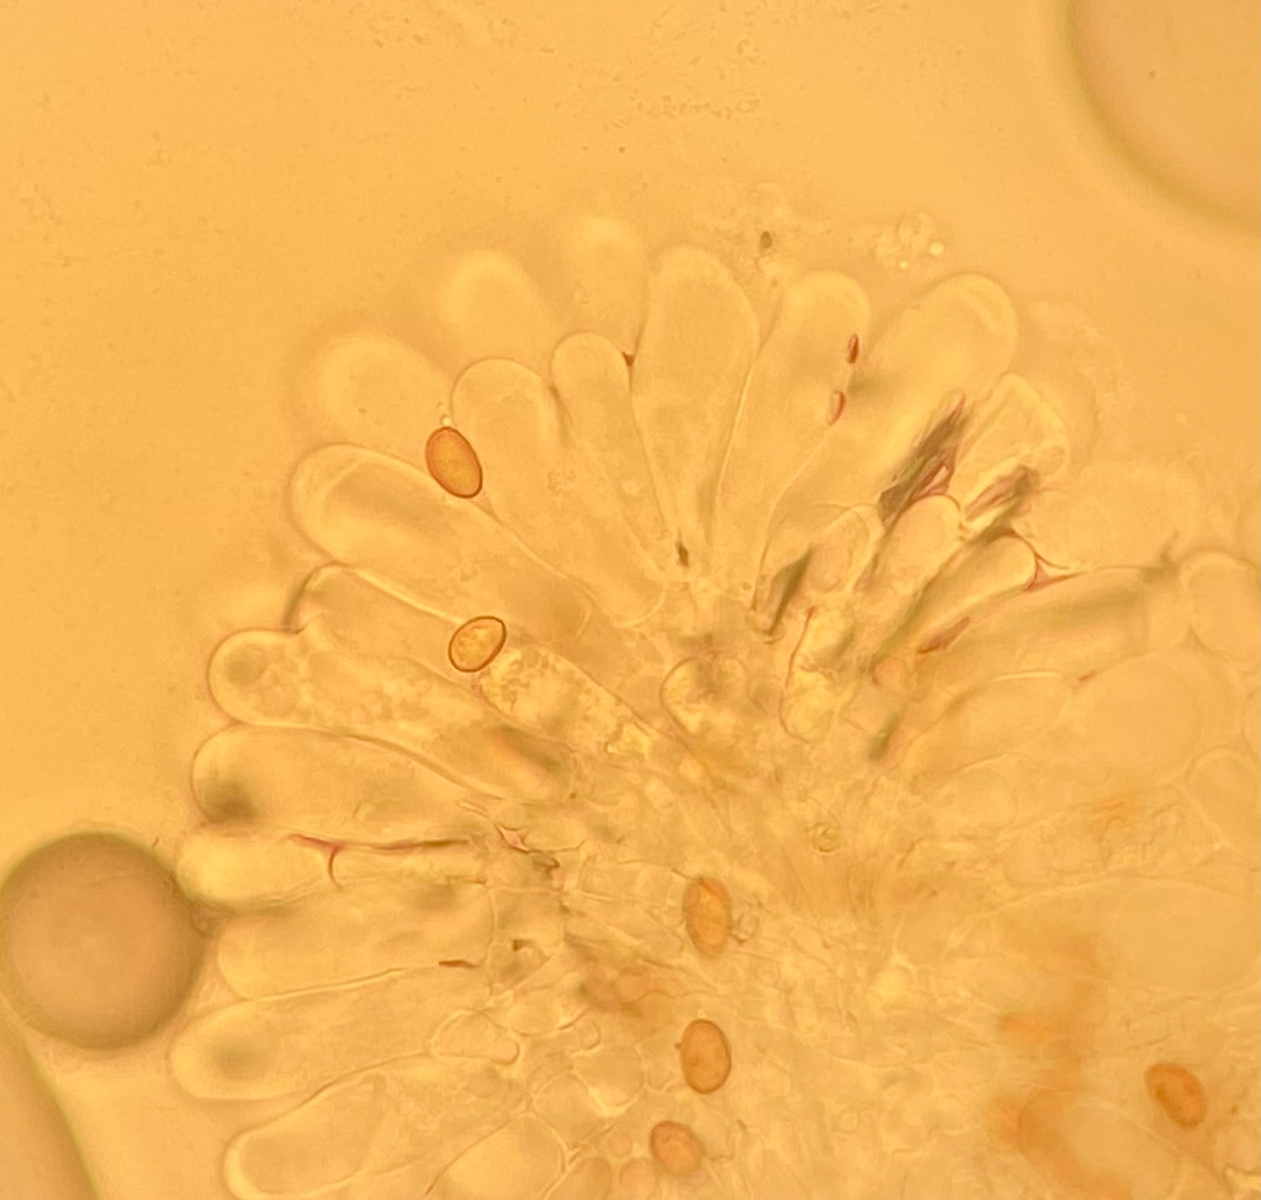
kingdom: Fungi
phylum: Basidiomycota
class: Agaricomycetes
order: Agaricales
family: Inocybaceae
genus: Pseudosperma
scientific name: Pseudosperma
